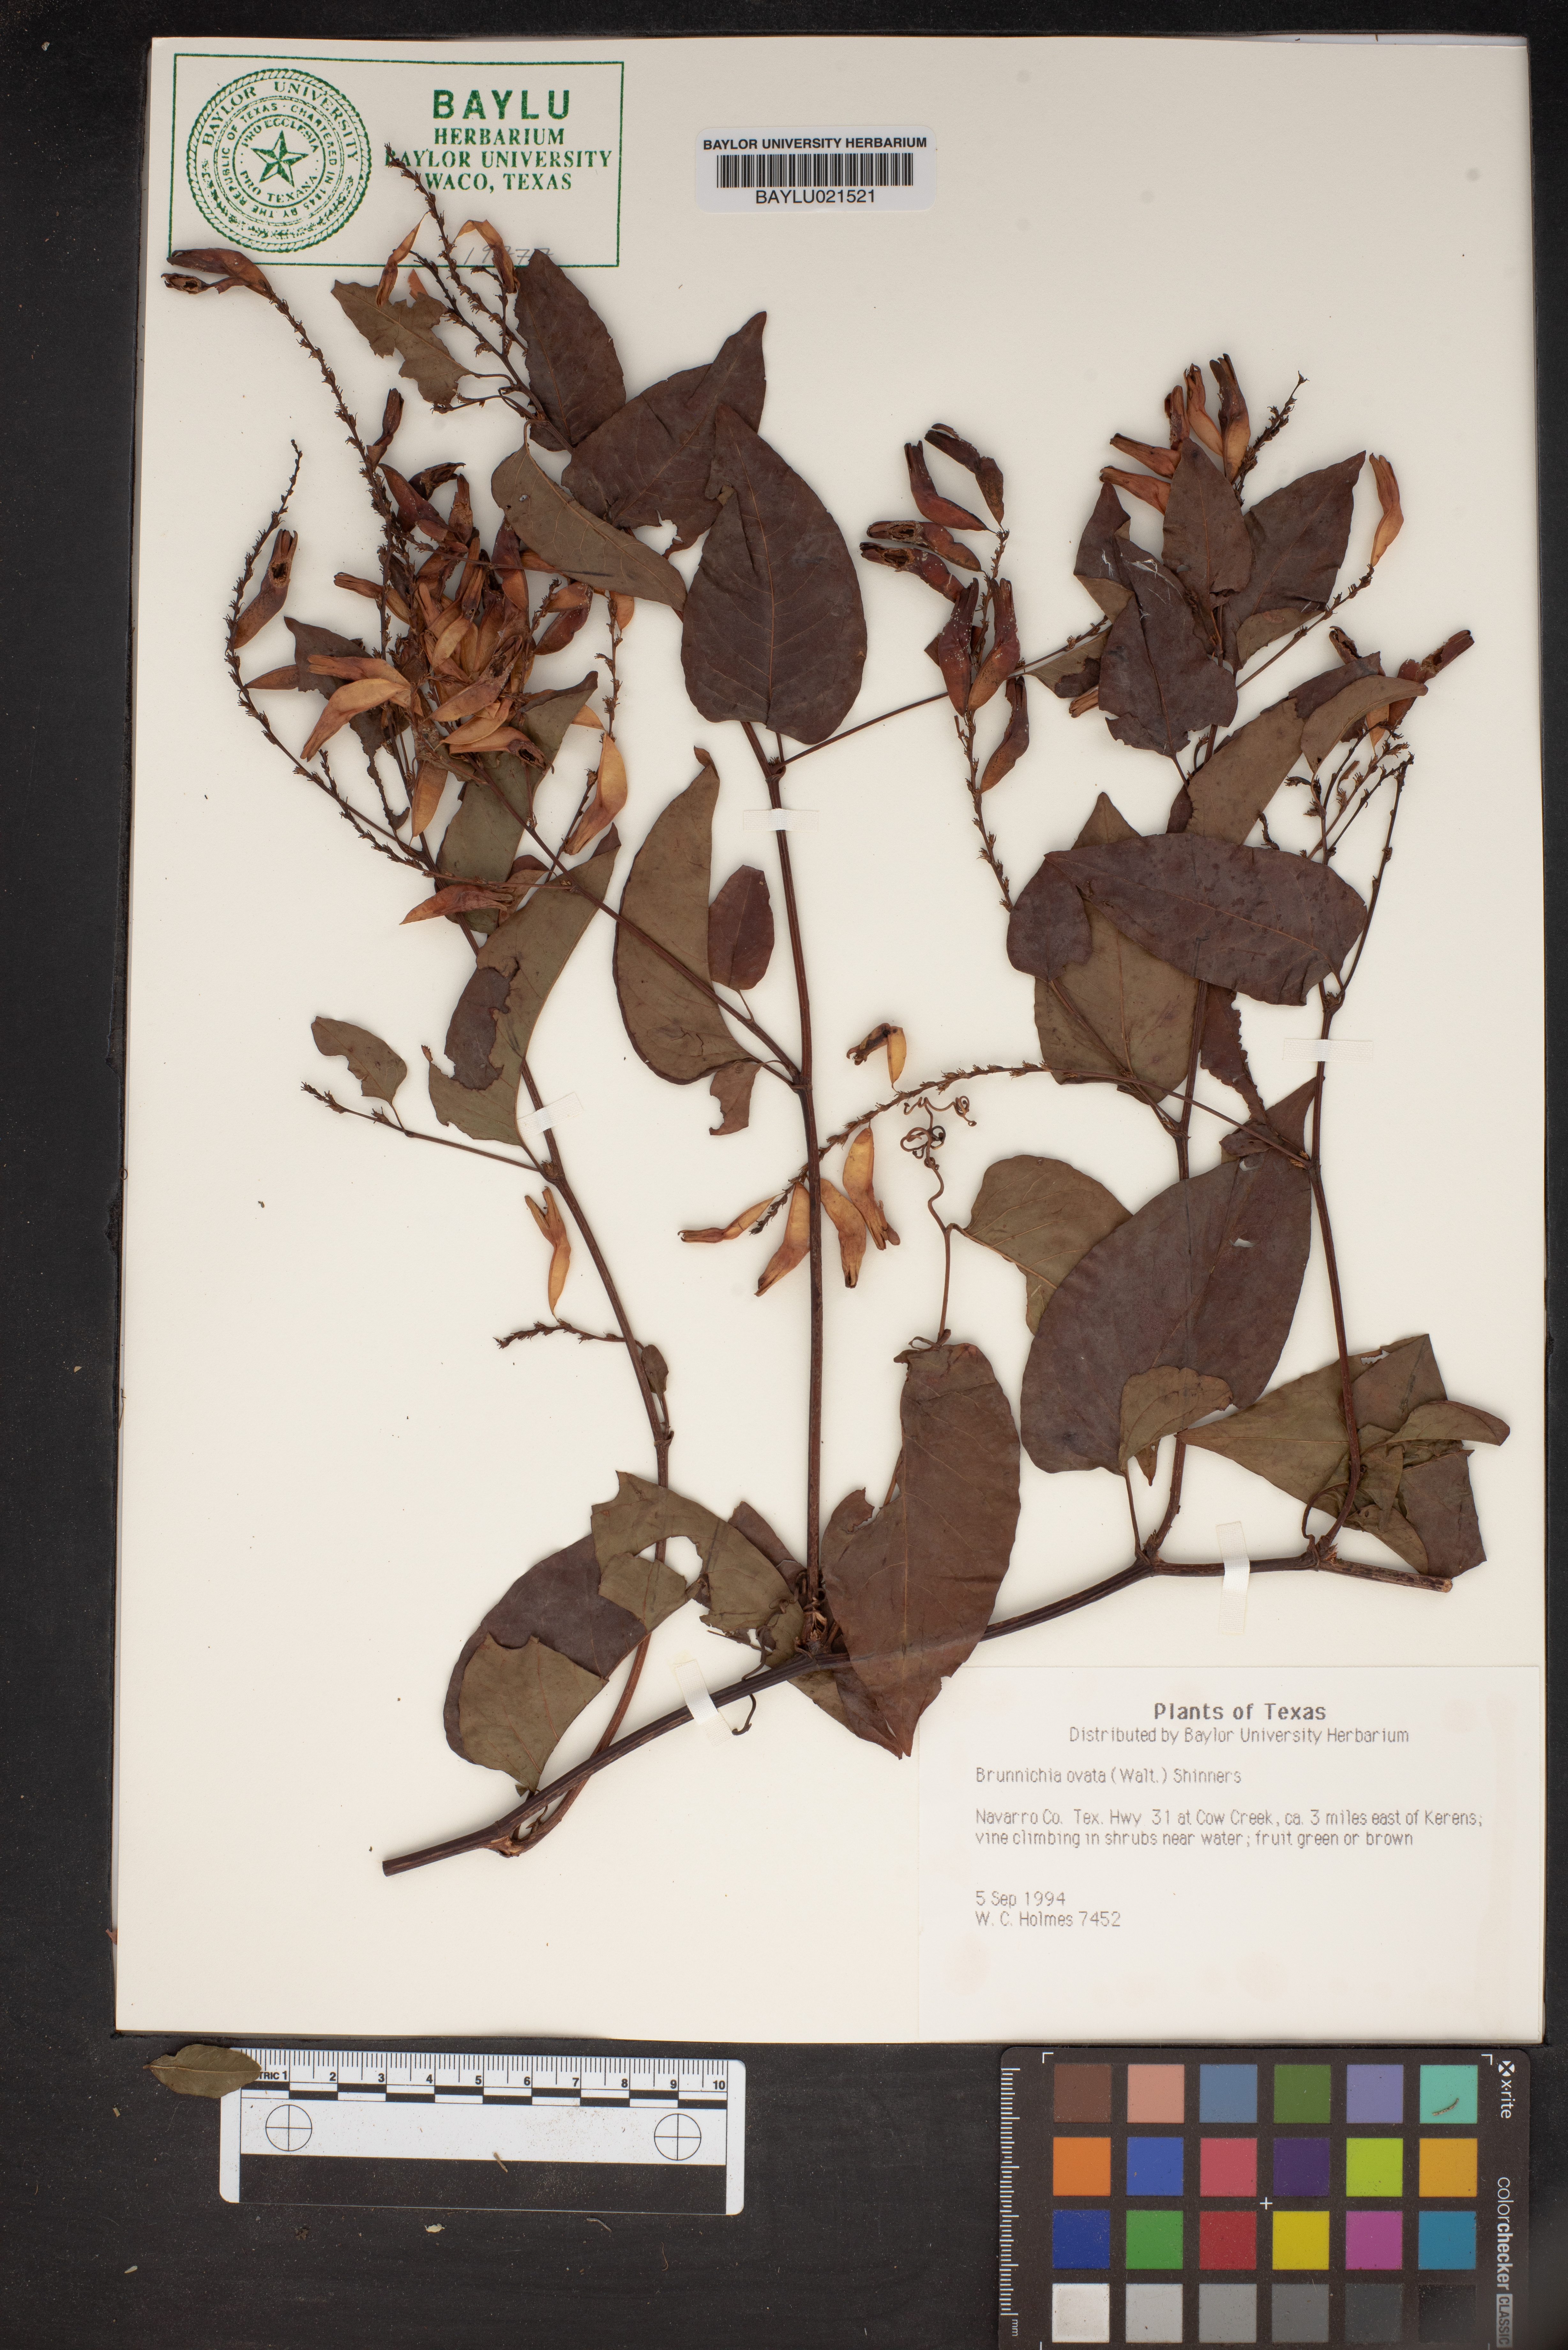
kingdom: Plantae
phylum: Tracheophyta
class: Magnoliopsida
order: Caryophyllales
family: Polygonaceae
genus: Brunnichia
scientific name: Brunnichia ovata
